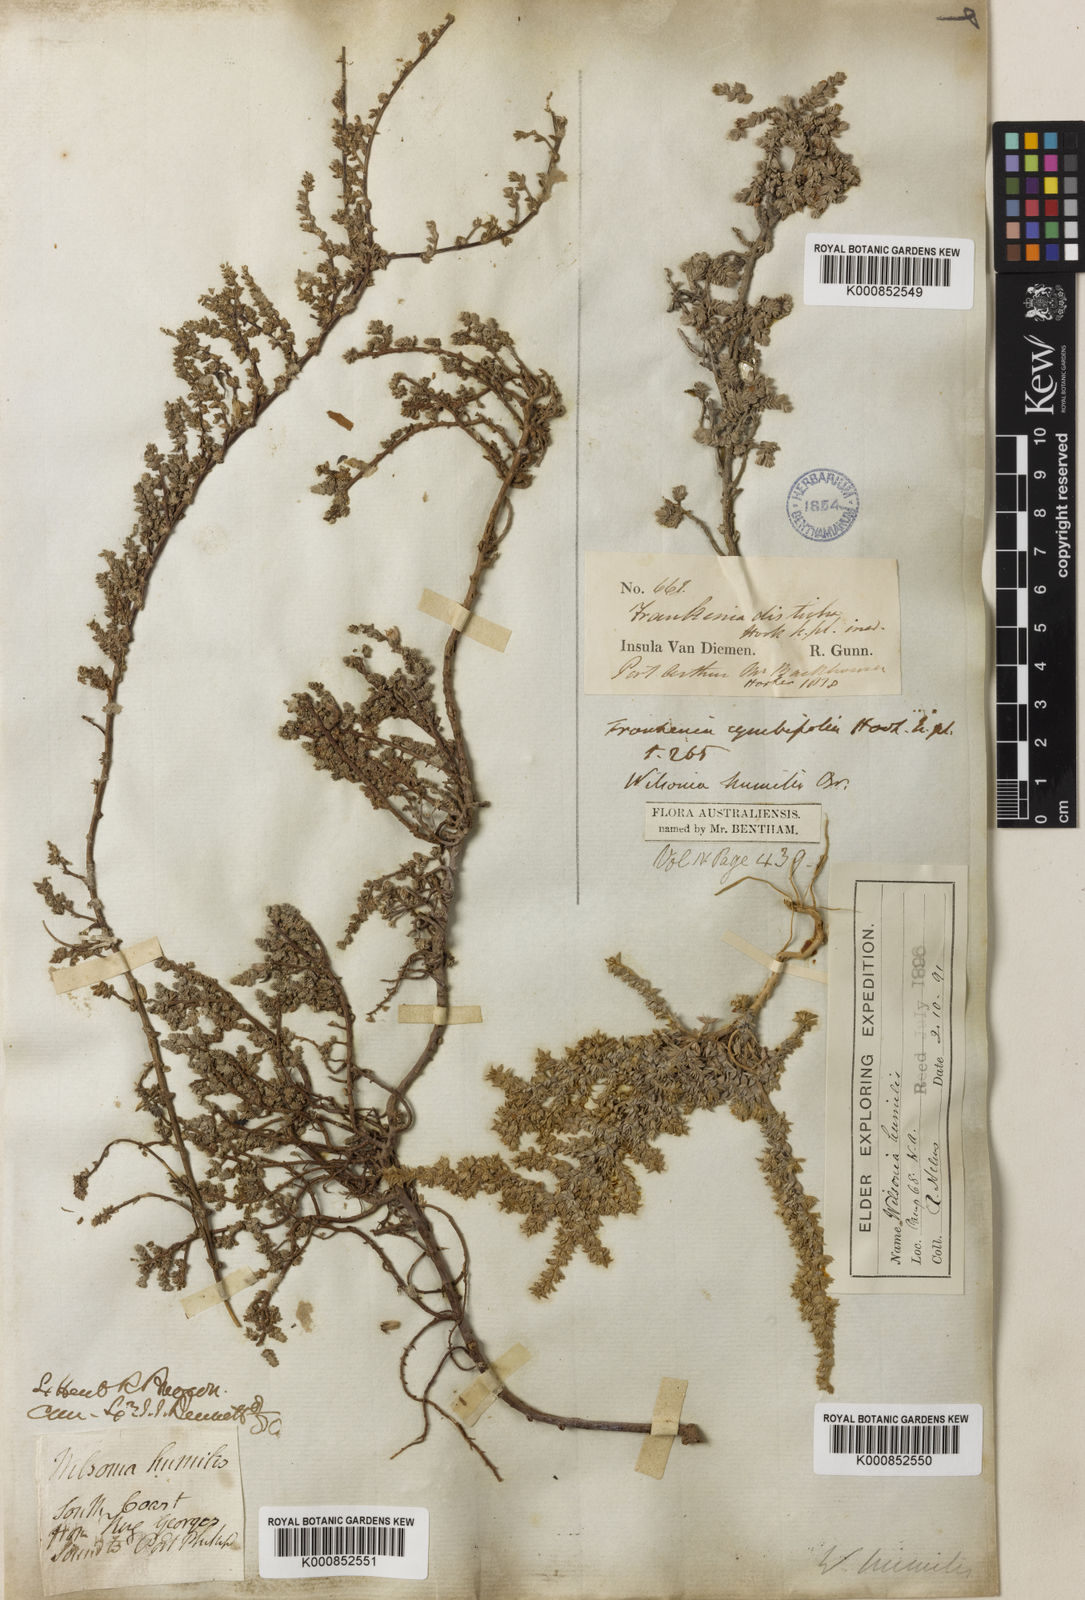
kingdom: Plantae
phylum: Tracheophyta
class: Magnoliopsida
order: Solanales
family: Convolvulaceae
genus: Wilsonia
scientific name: Wilsonia humilis
